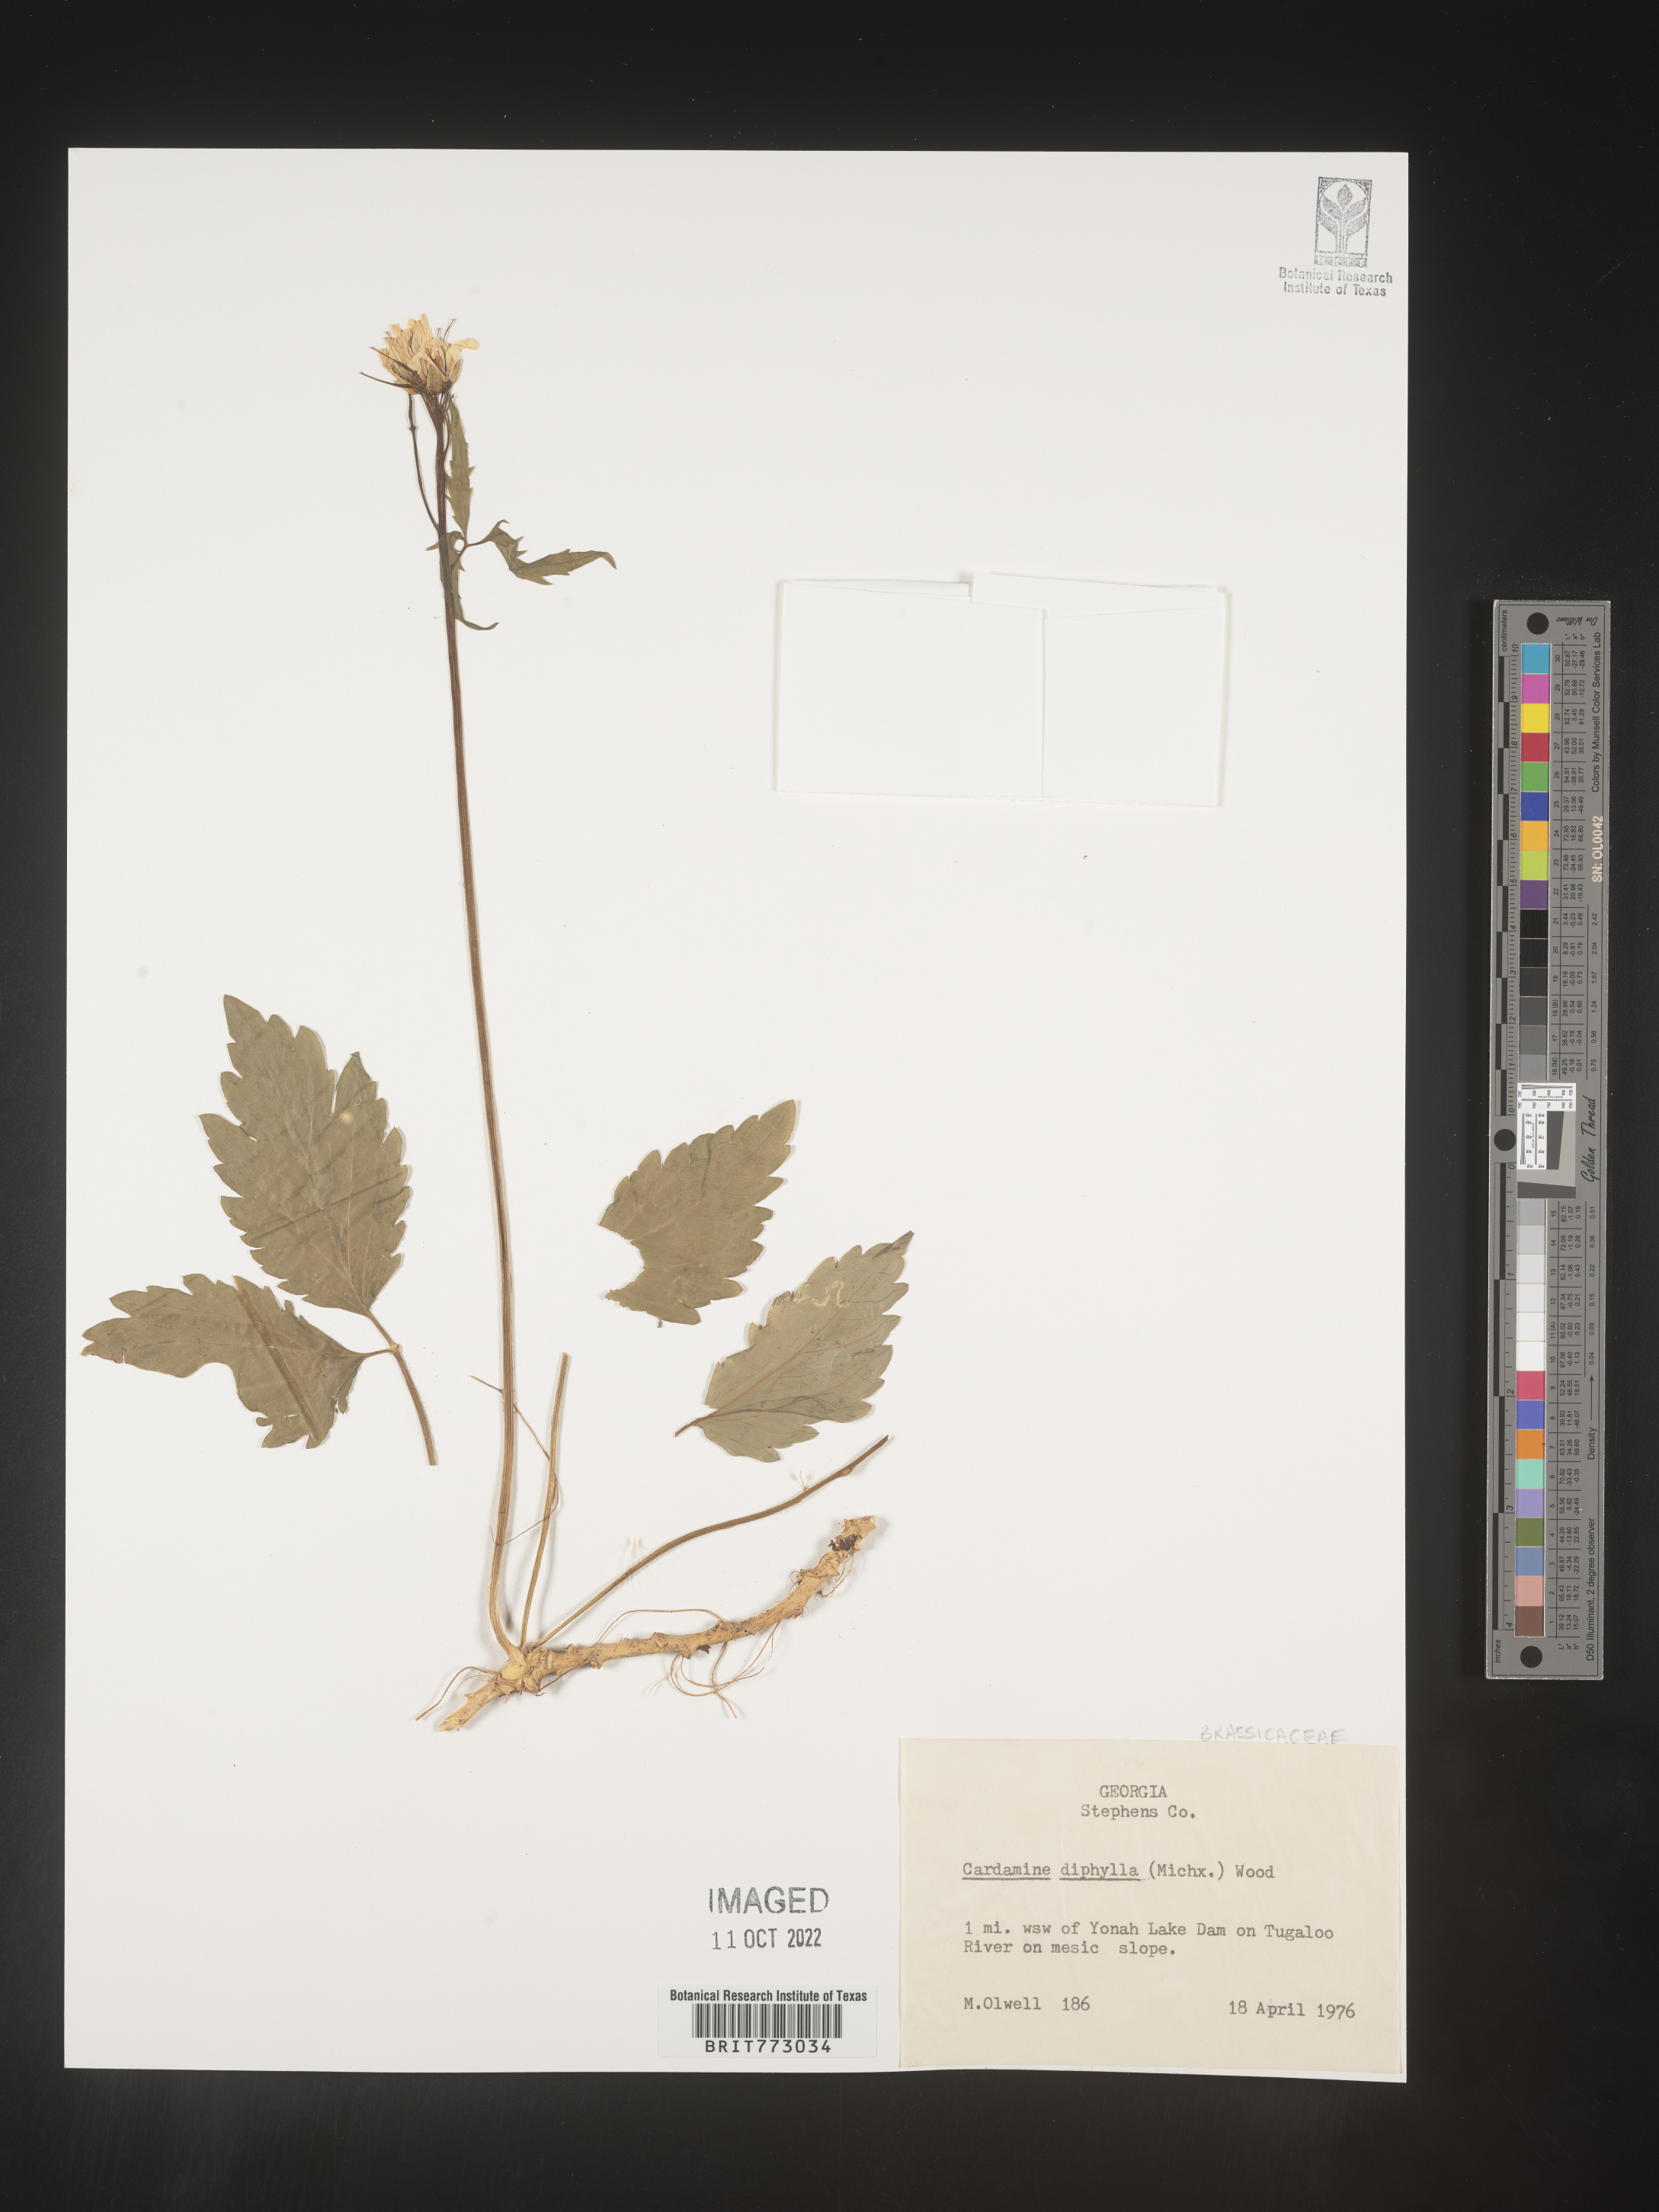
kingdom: Plantae
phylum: Tracheophyta
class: Magnoliopsida
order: Brassicales
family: Brassicaceae
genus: Cardamine
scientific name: Cardamine diphylla
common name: Broad-leaved toothwort
